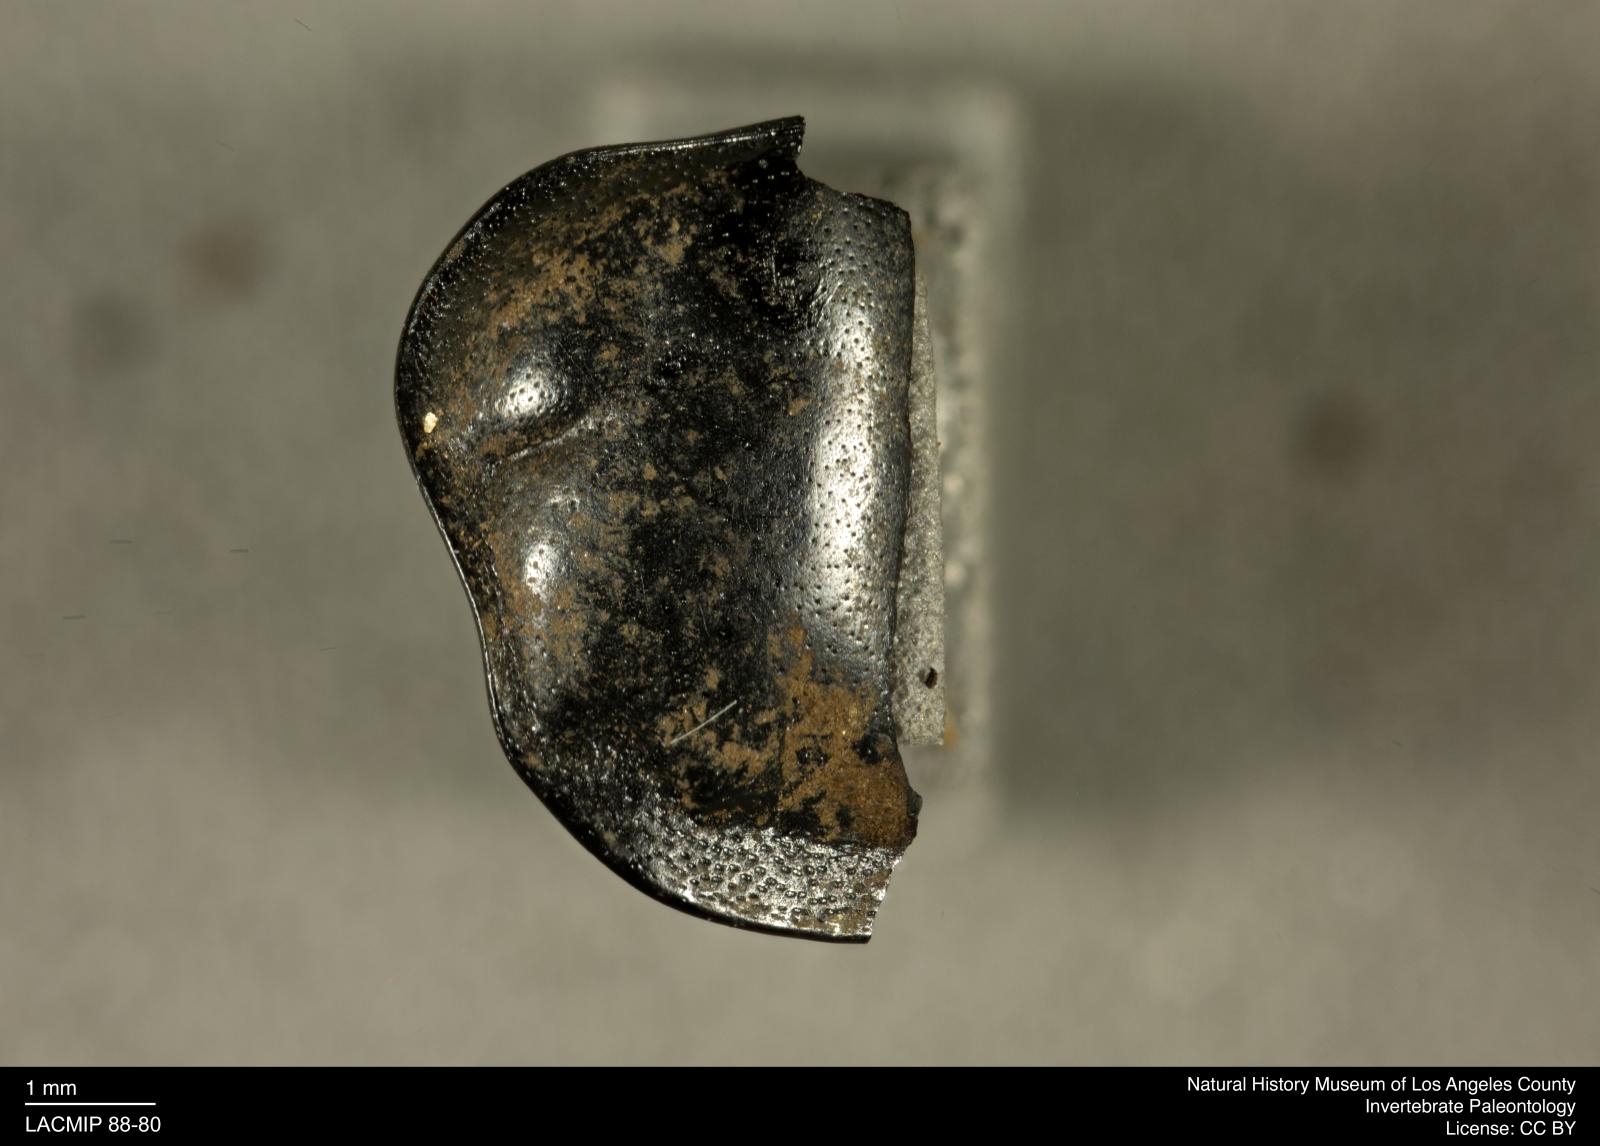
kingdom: Animalia
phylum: Arthropoda
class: Insecta
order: Coleoptera
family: Staphylinidae
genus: Nicrophorus
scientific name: Nicrophorus marginatus
